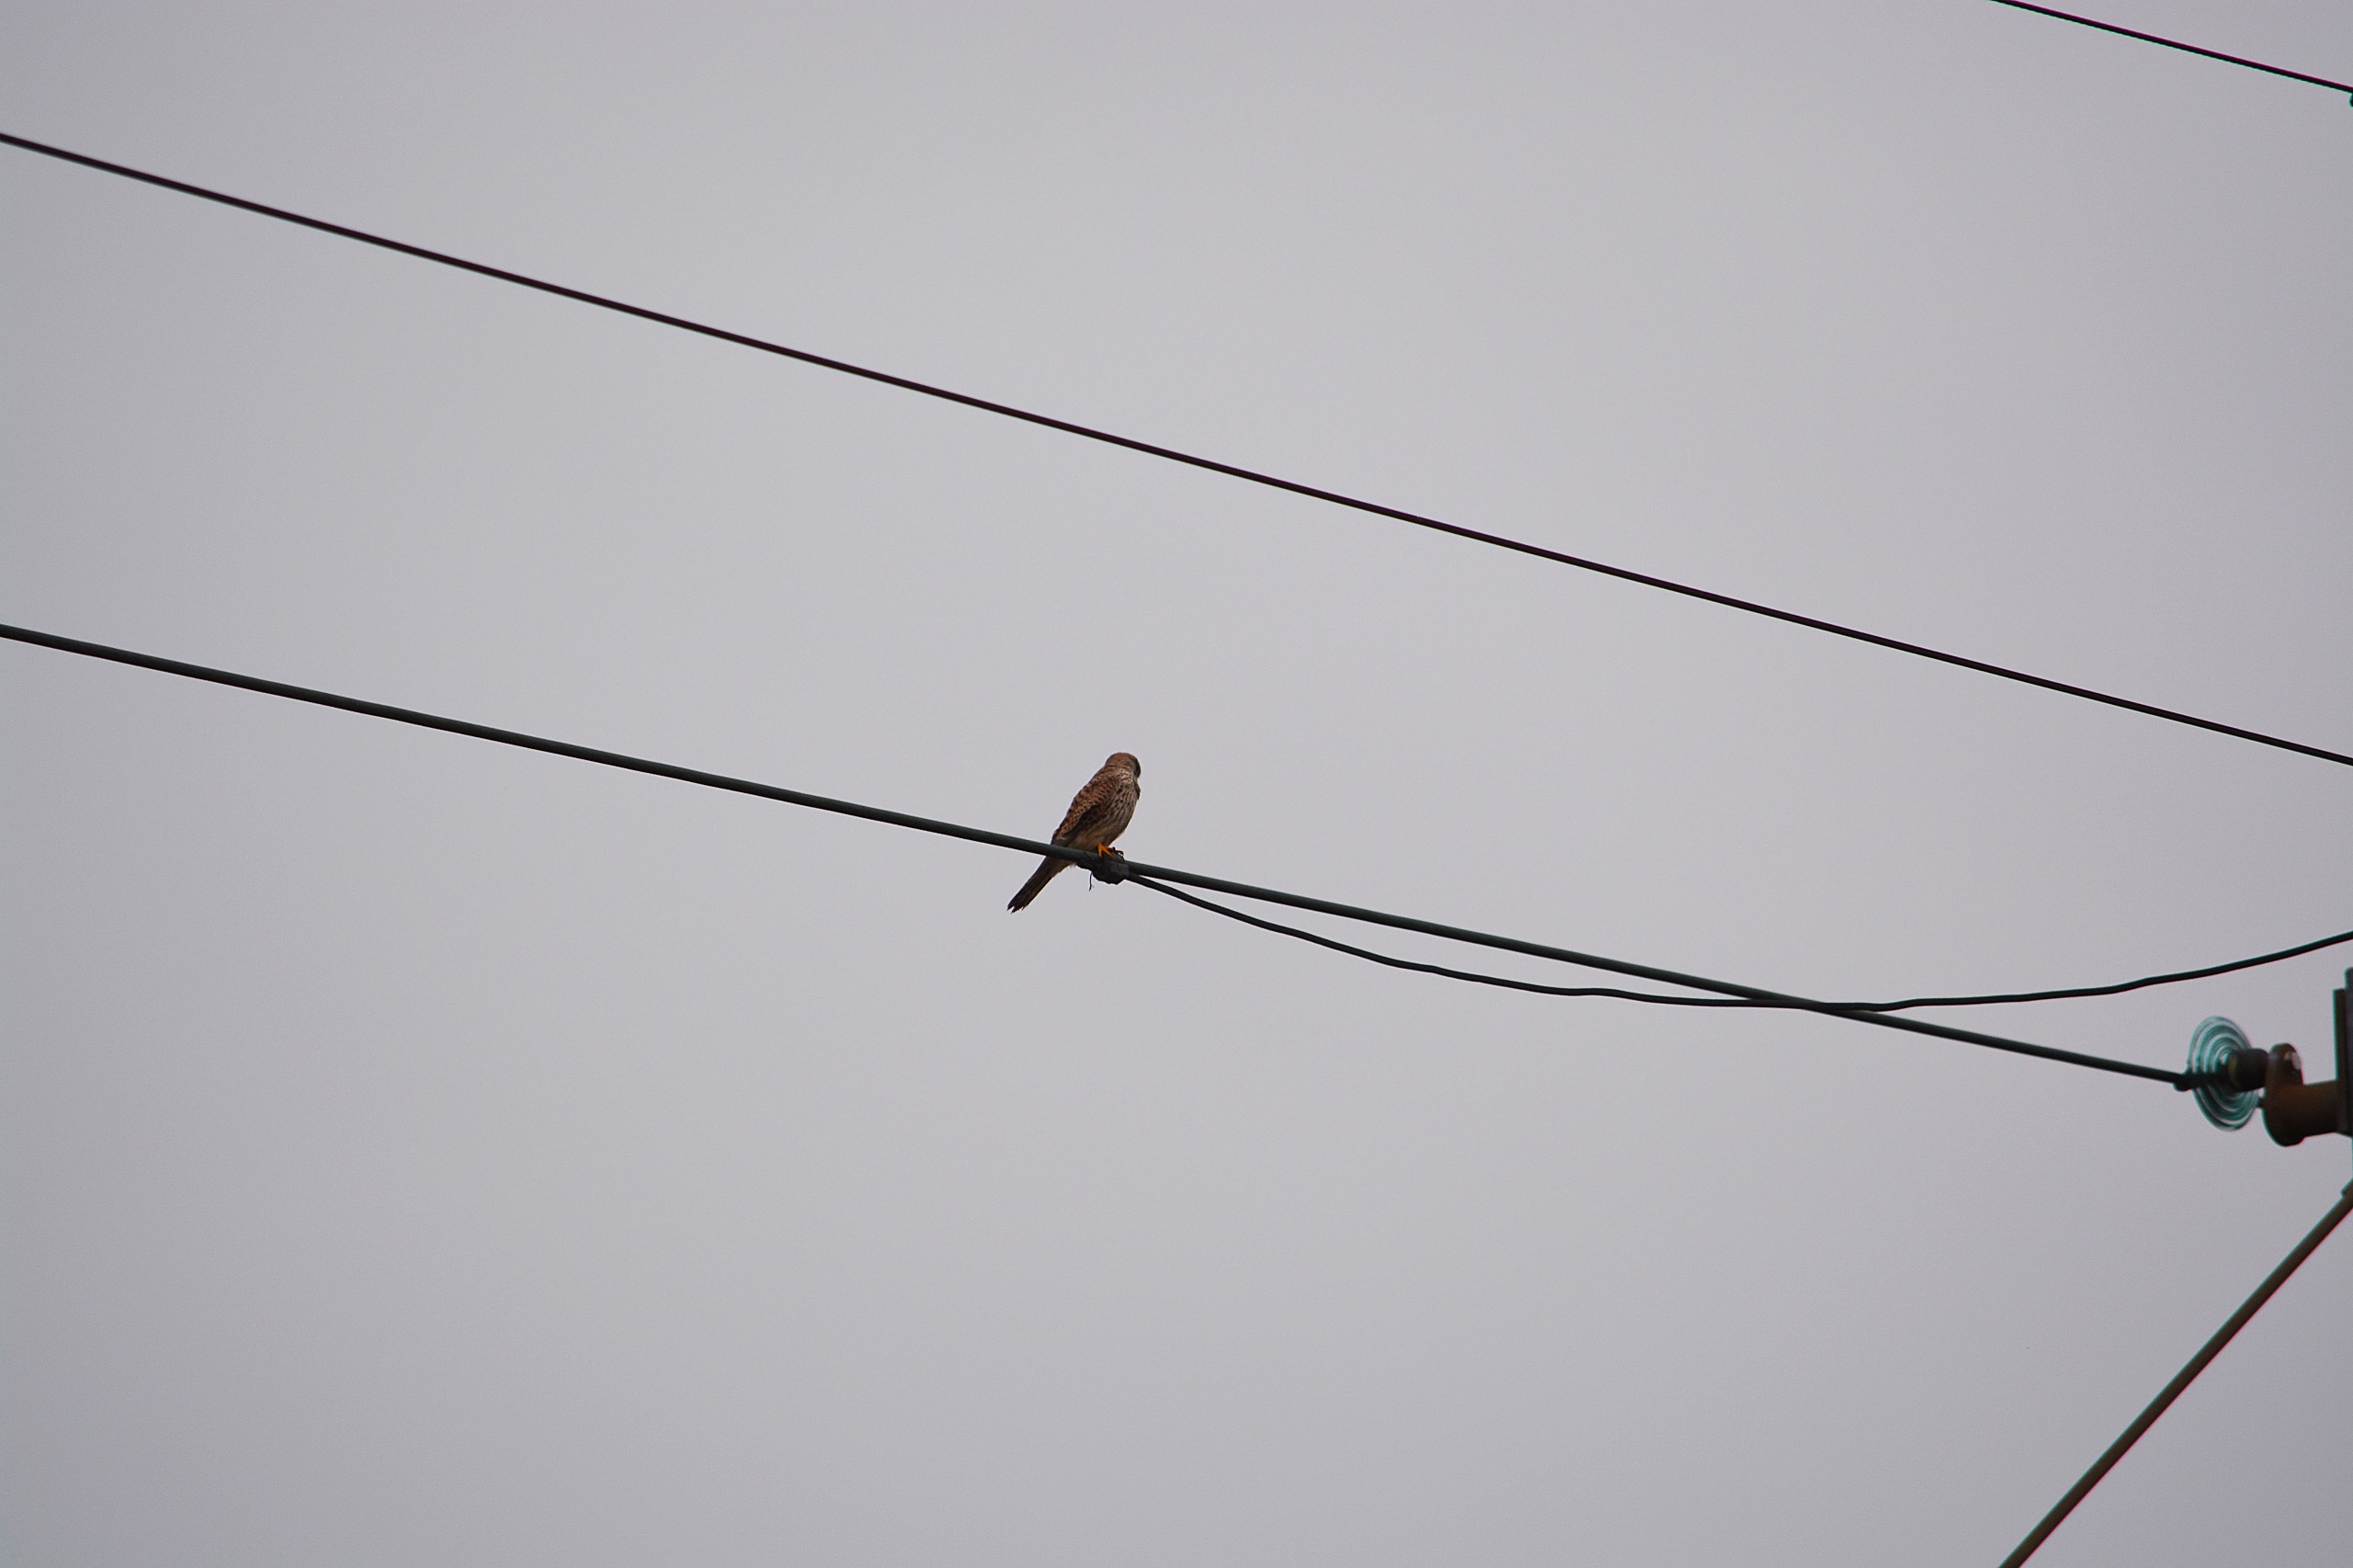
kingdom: Animalia
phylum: Chordata
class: Aves
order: Falconiformes
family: Falconidae
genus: Falco
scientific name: Falco tinnunculus
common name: Tårnfalk
